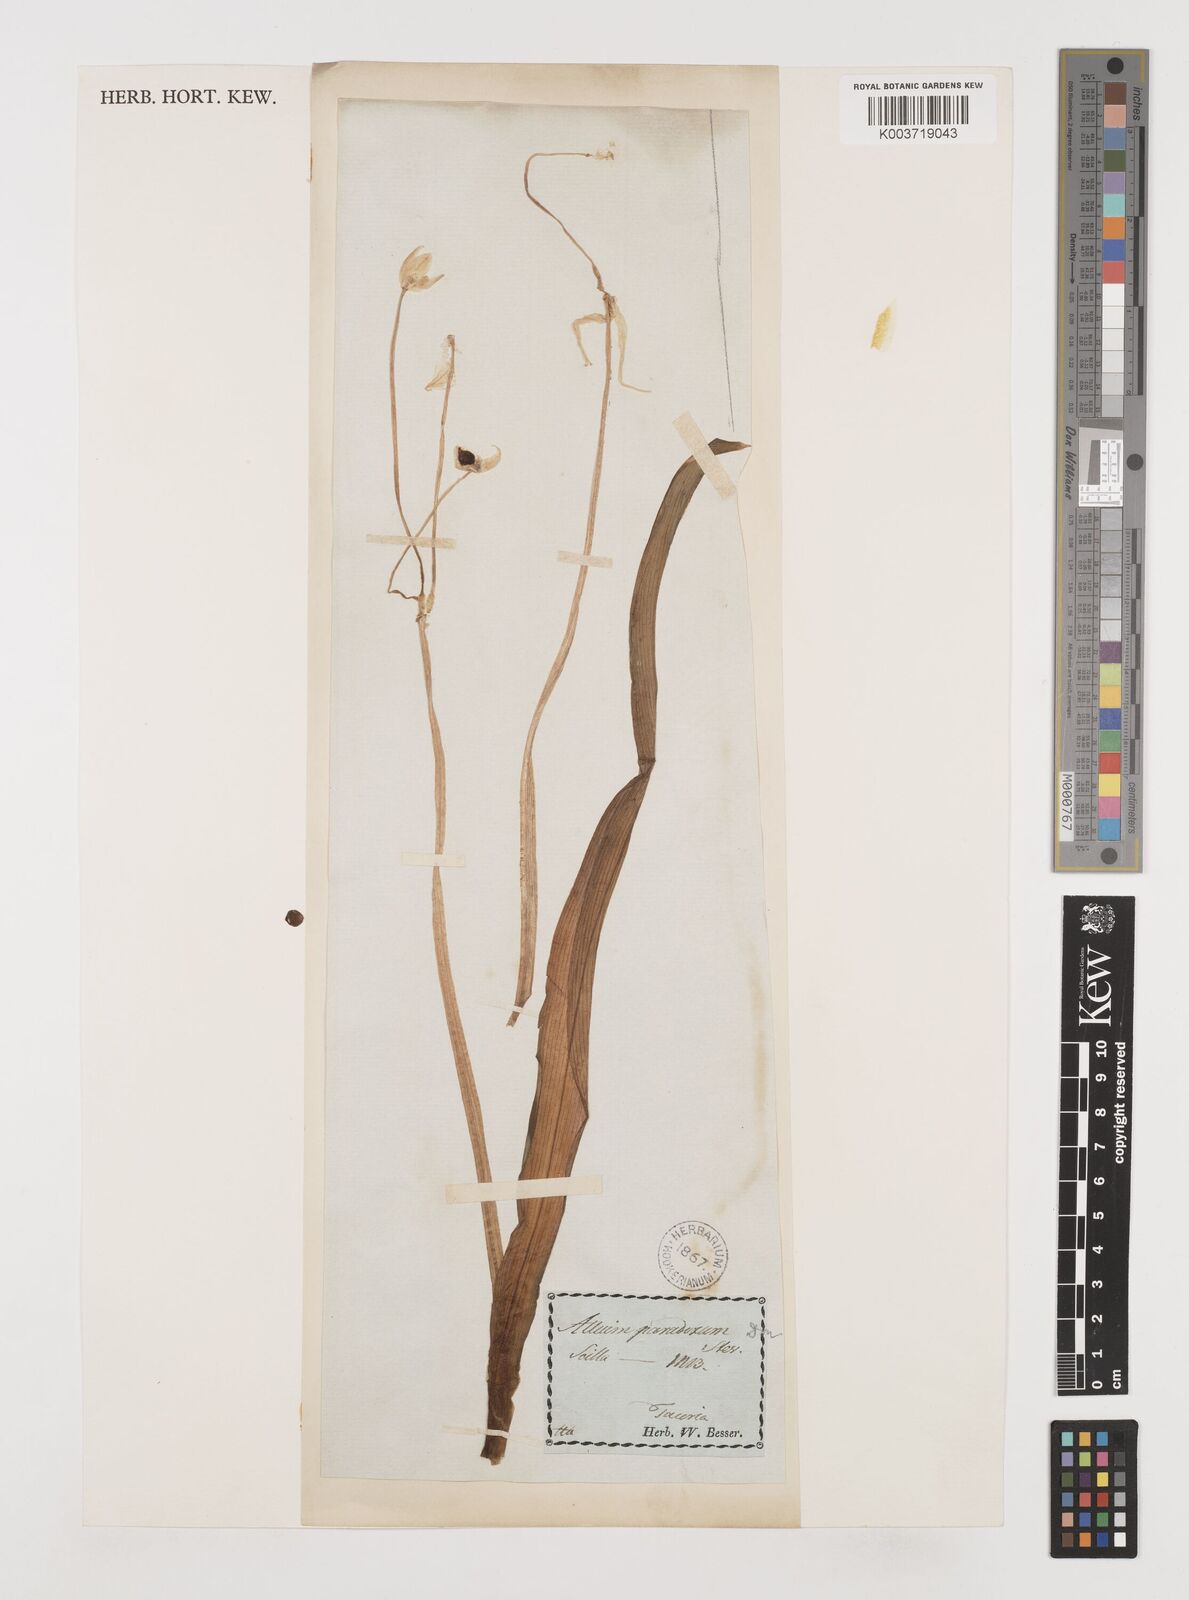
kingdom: Plantae
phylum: Tracheophyta
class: Liliopsida
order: Asparagales
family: Amaryllidaceae
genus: Allium
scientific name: Allium paradoxum
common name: Few-flowered garlic
